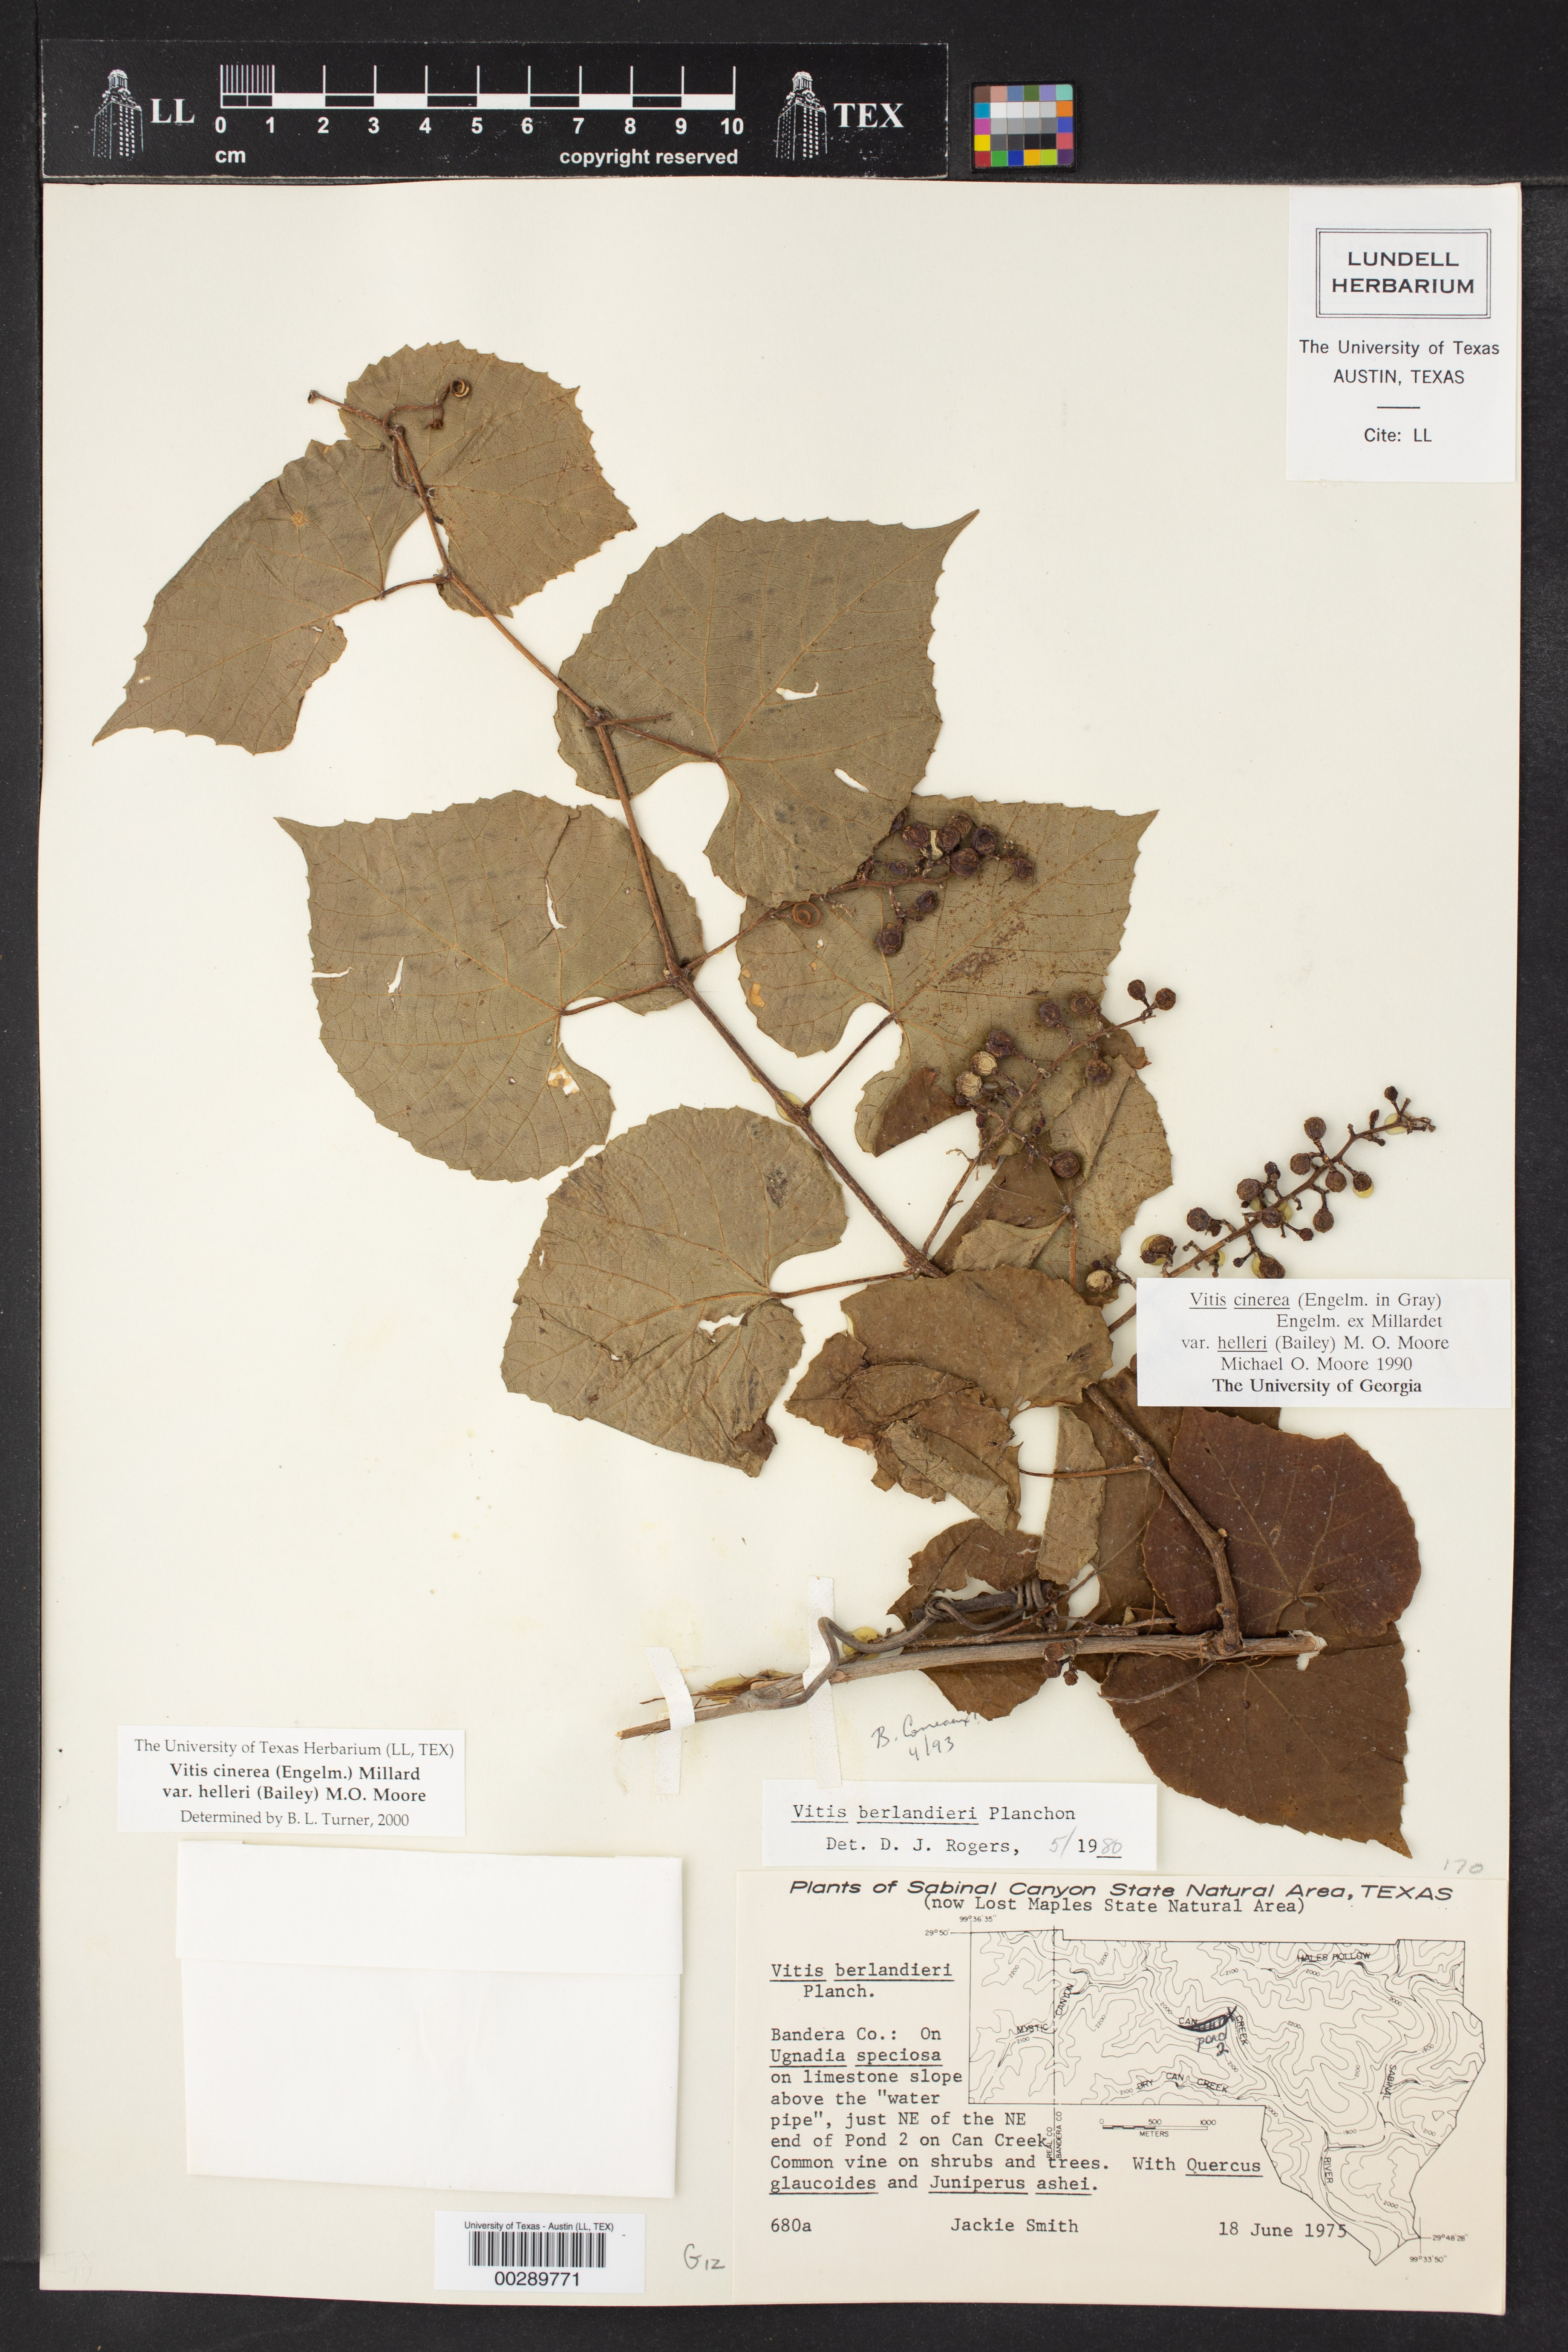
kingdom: Plantae
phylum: Tracheophyta
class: Magnoliopsida
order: Vitales
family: Vitaceae
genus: Vitis
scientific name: Vitis cinerea
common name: Ashy grape
